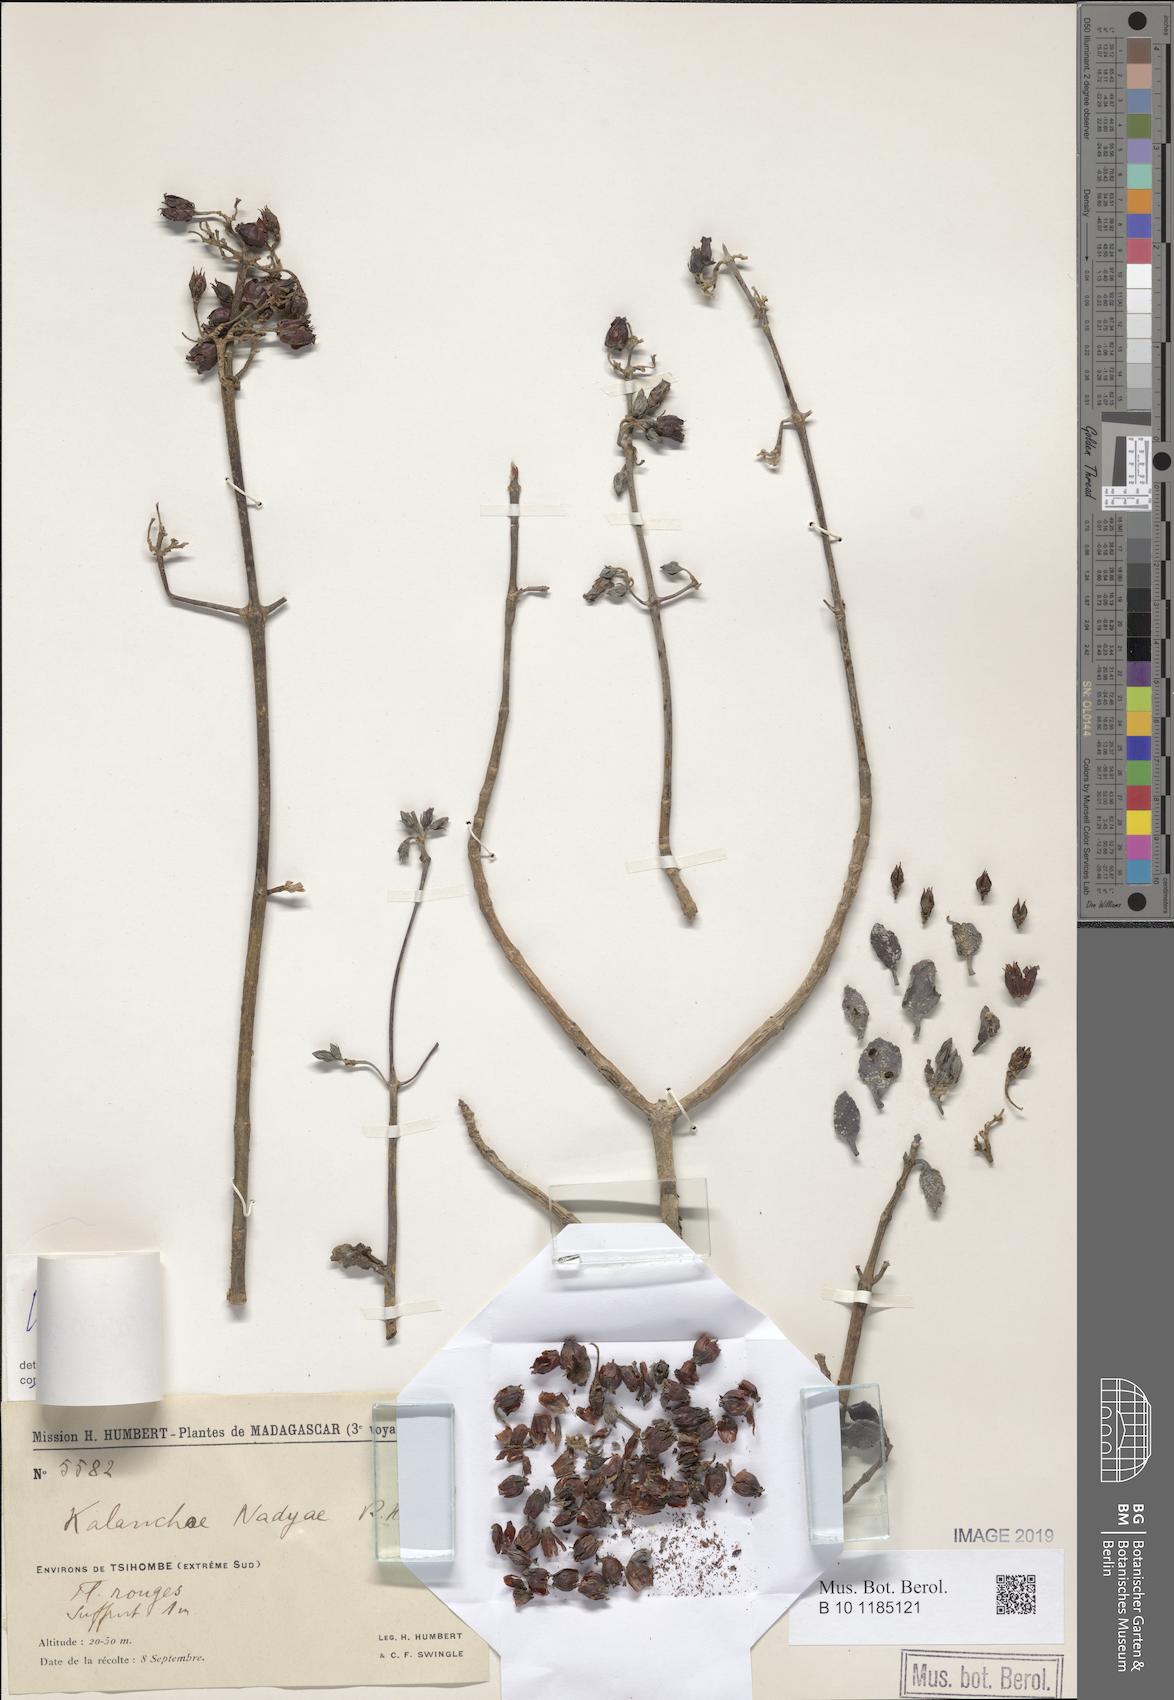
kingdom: Plantae
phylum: Tracheophyta
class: Magnoliopsida
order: Saxifragales
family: Crassulaceae
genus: Kalanchoe
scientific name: Kalanchoe bracteata
